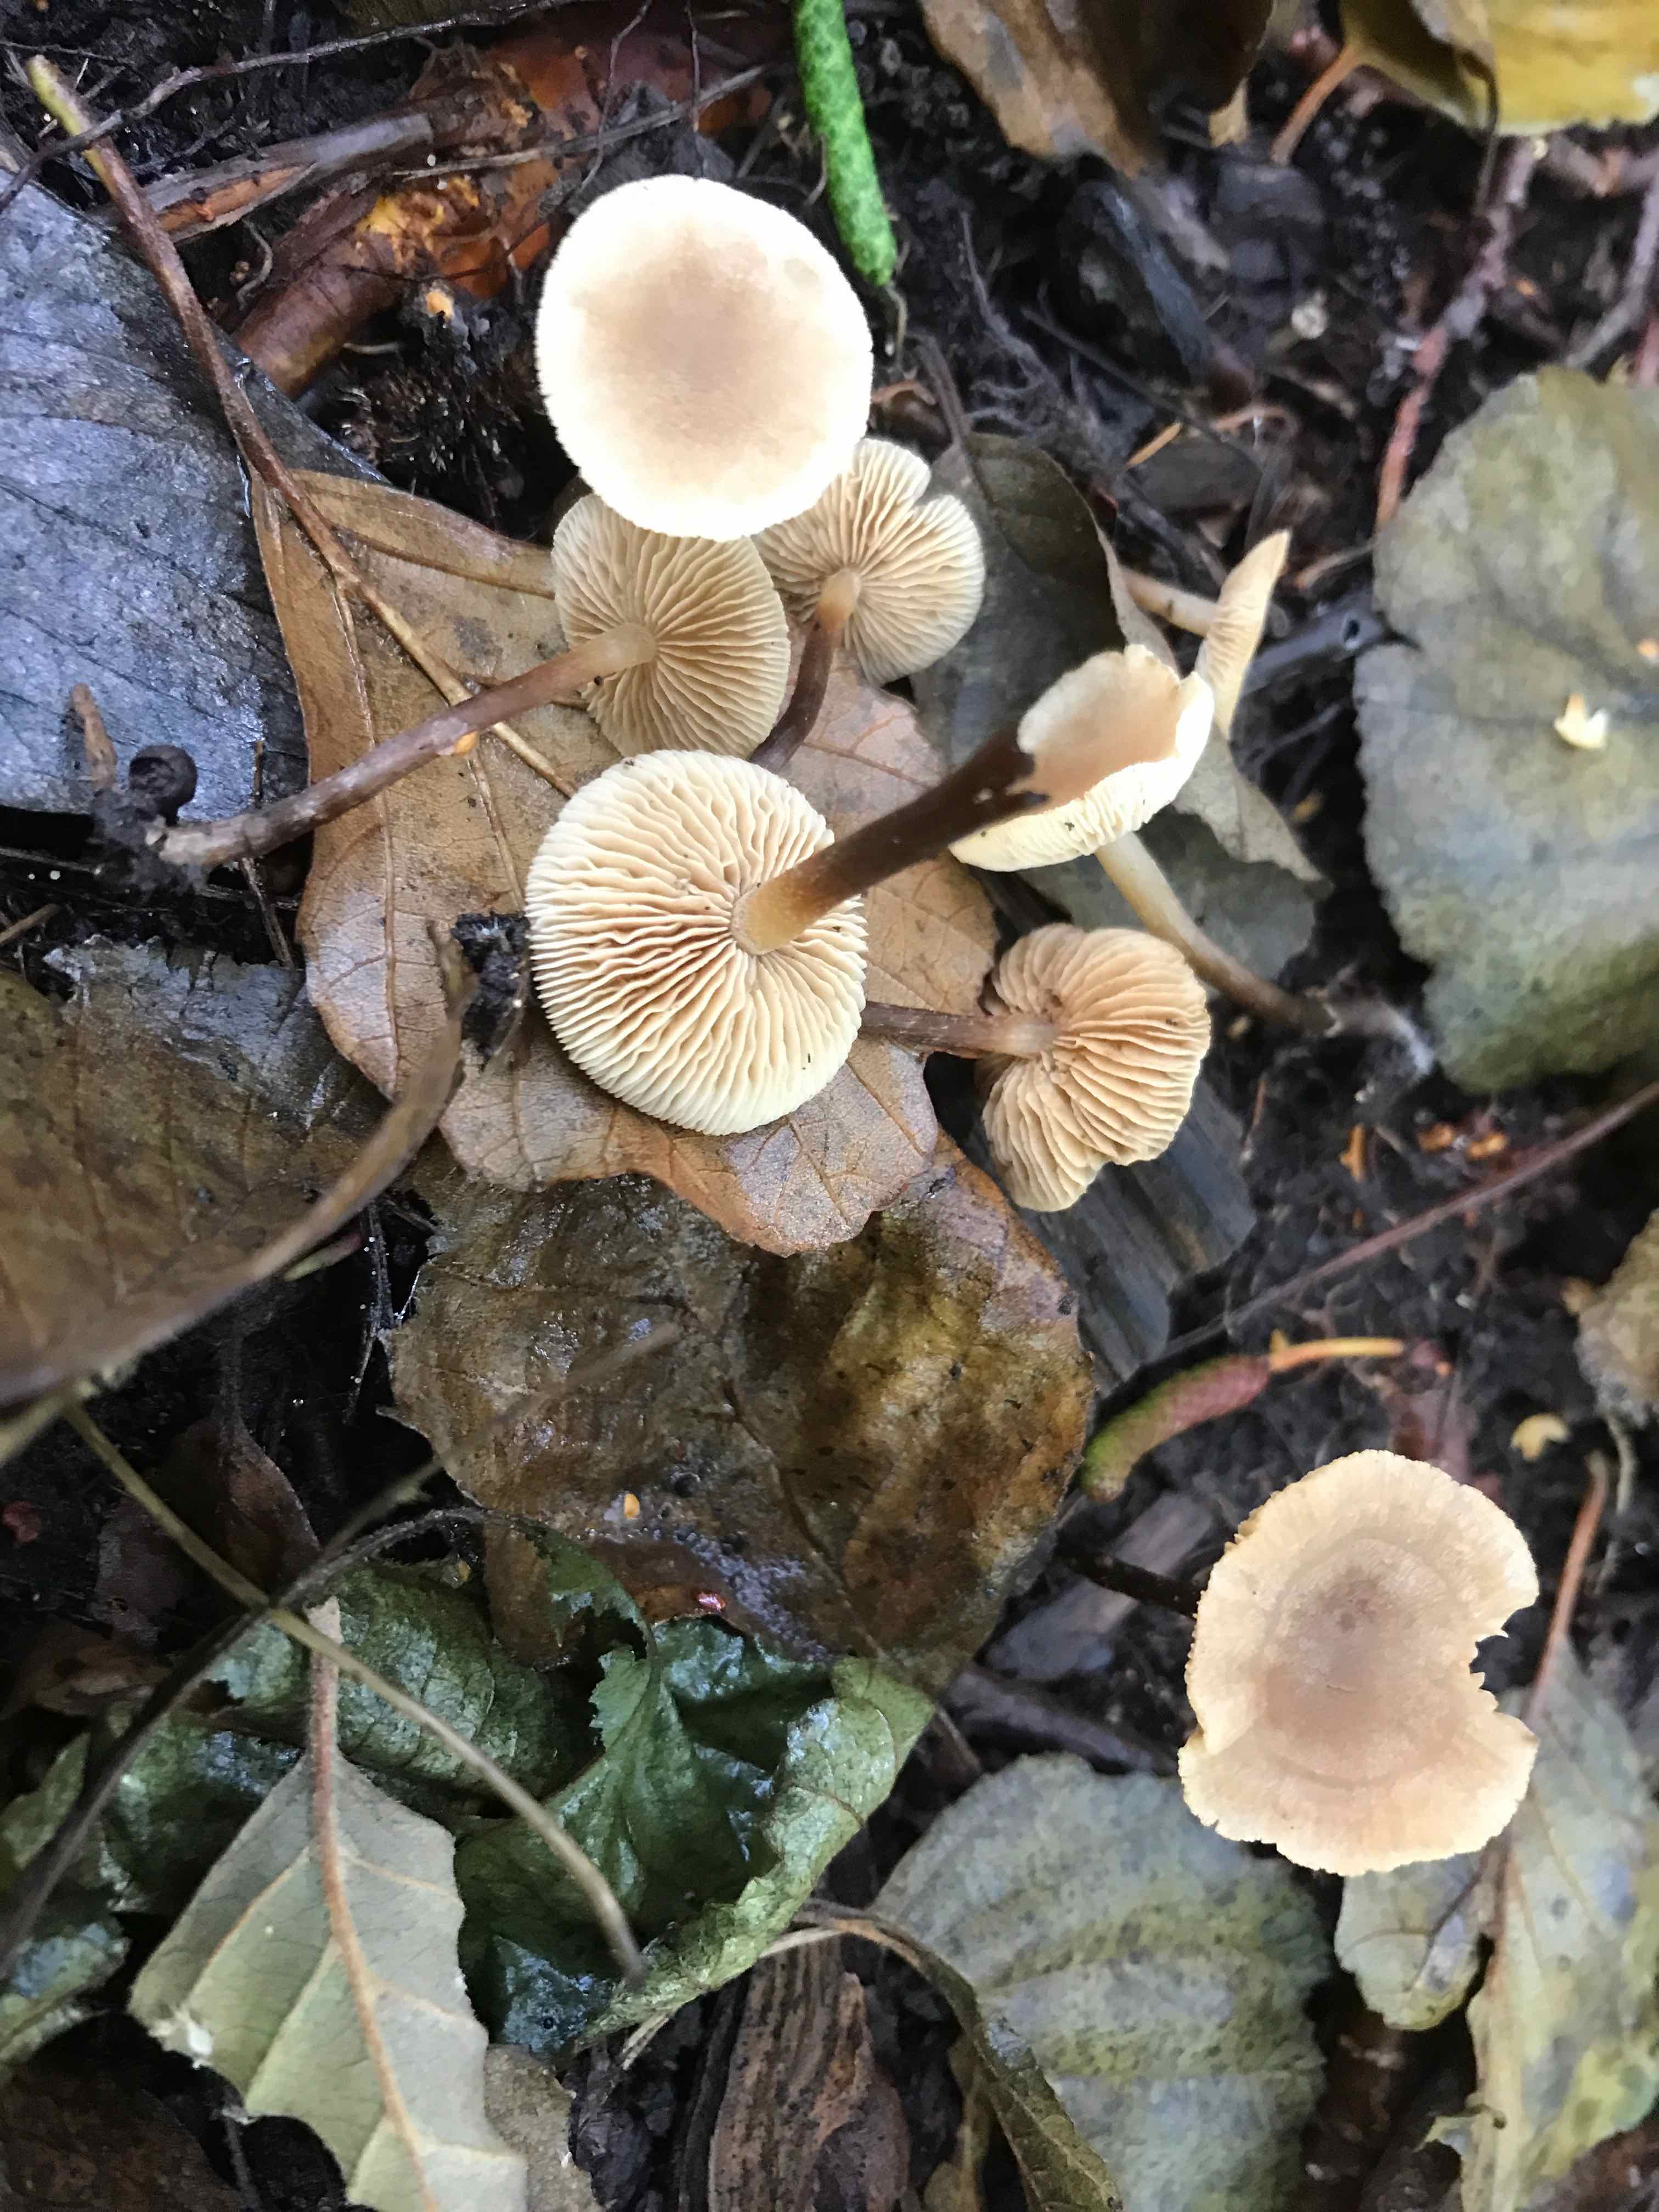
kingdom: Fungi
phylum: Basidiomycota
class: Agaricomycetes
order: Agaricales
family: Hymenogastraceae
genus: Naucoria
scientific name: Naucoria escharioides
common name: lys elle-knaphat
